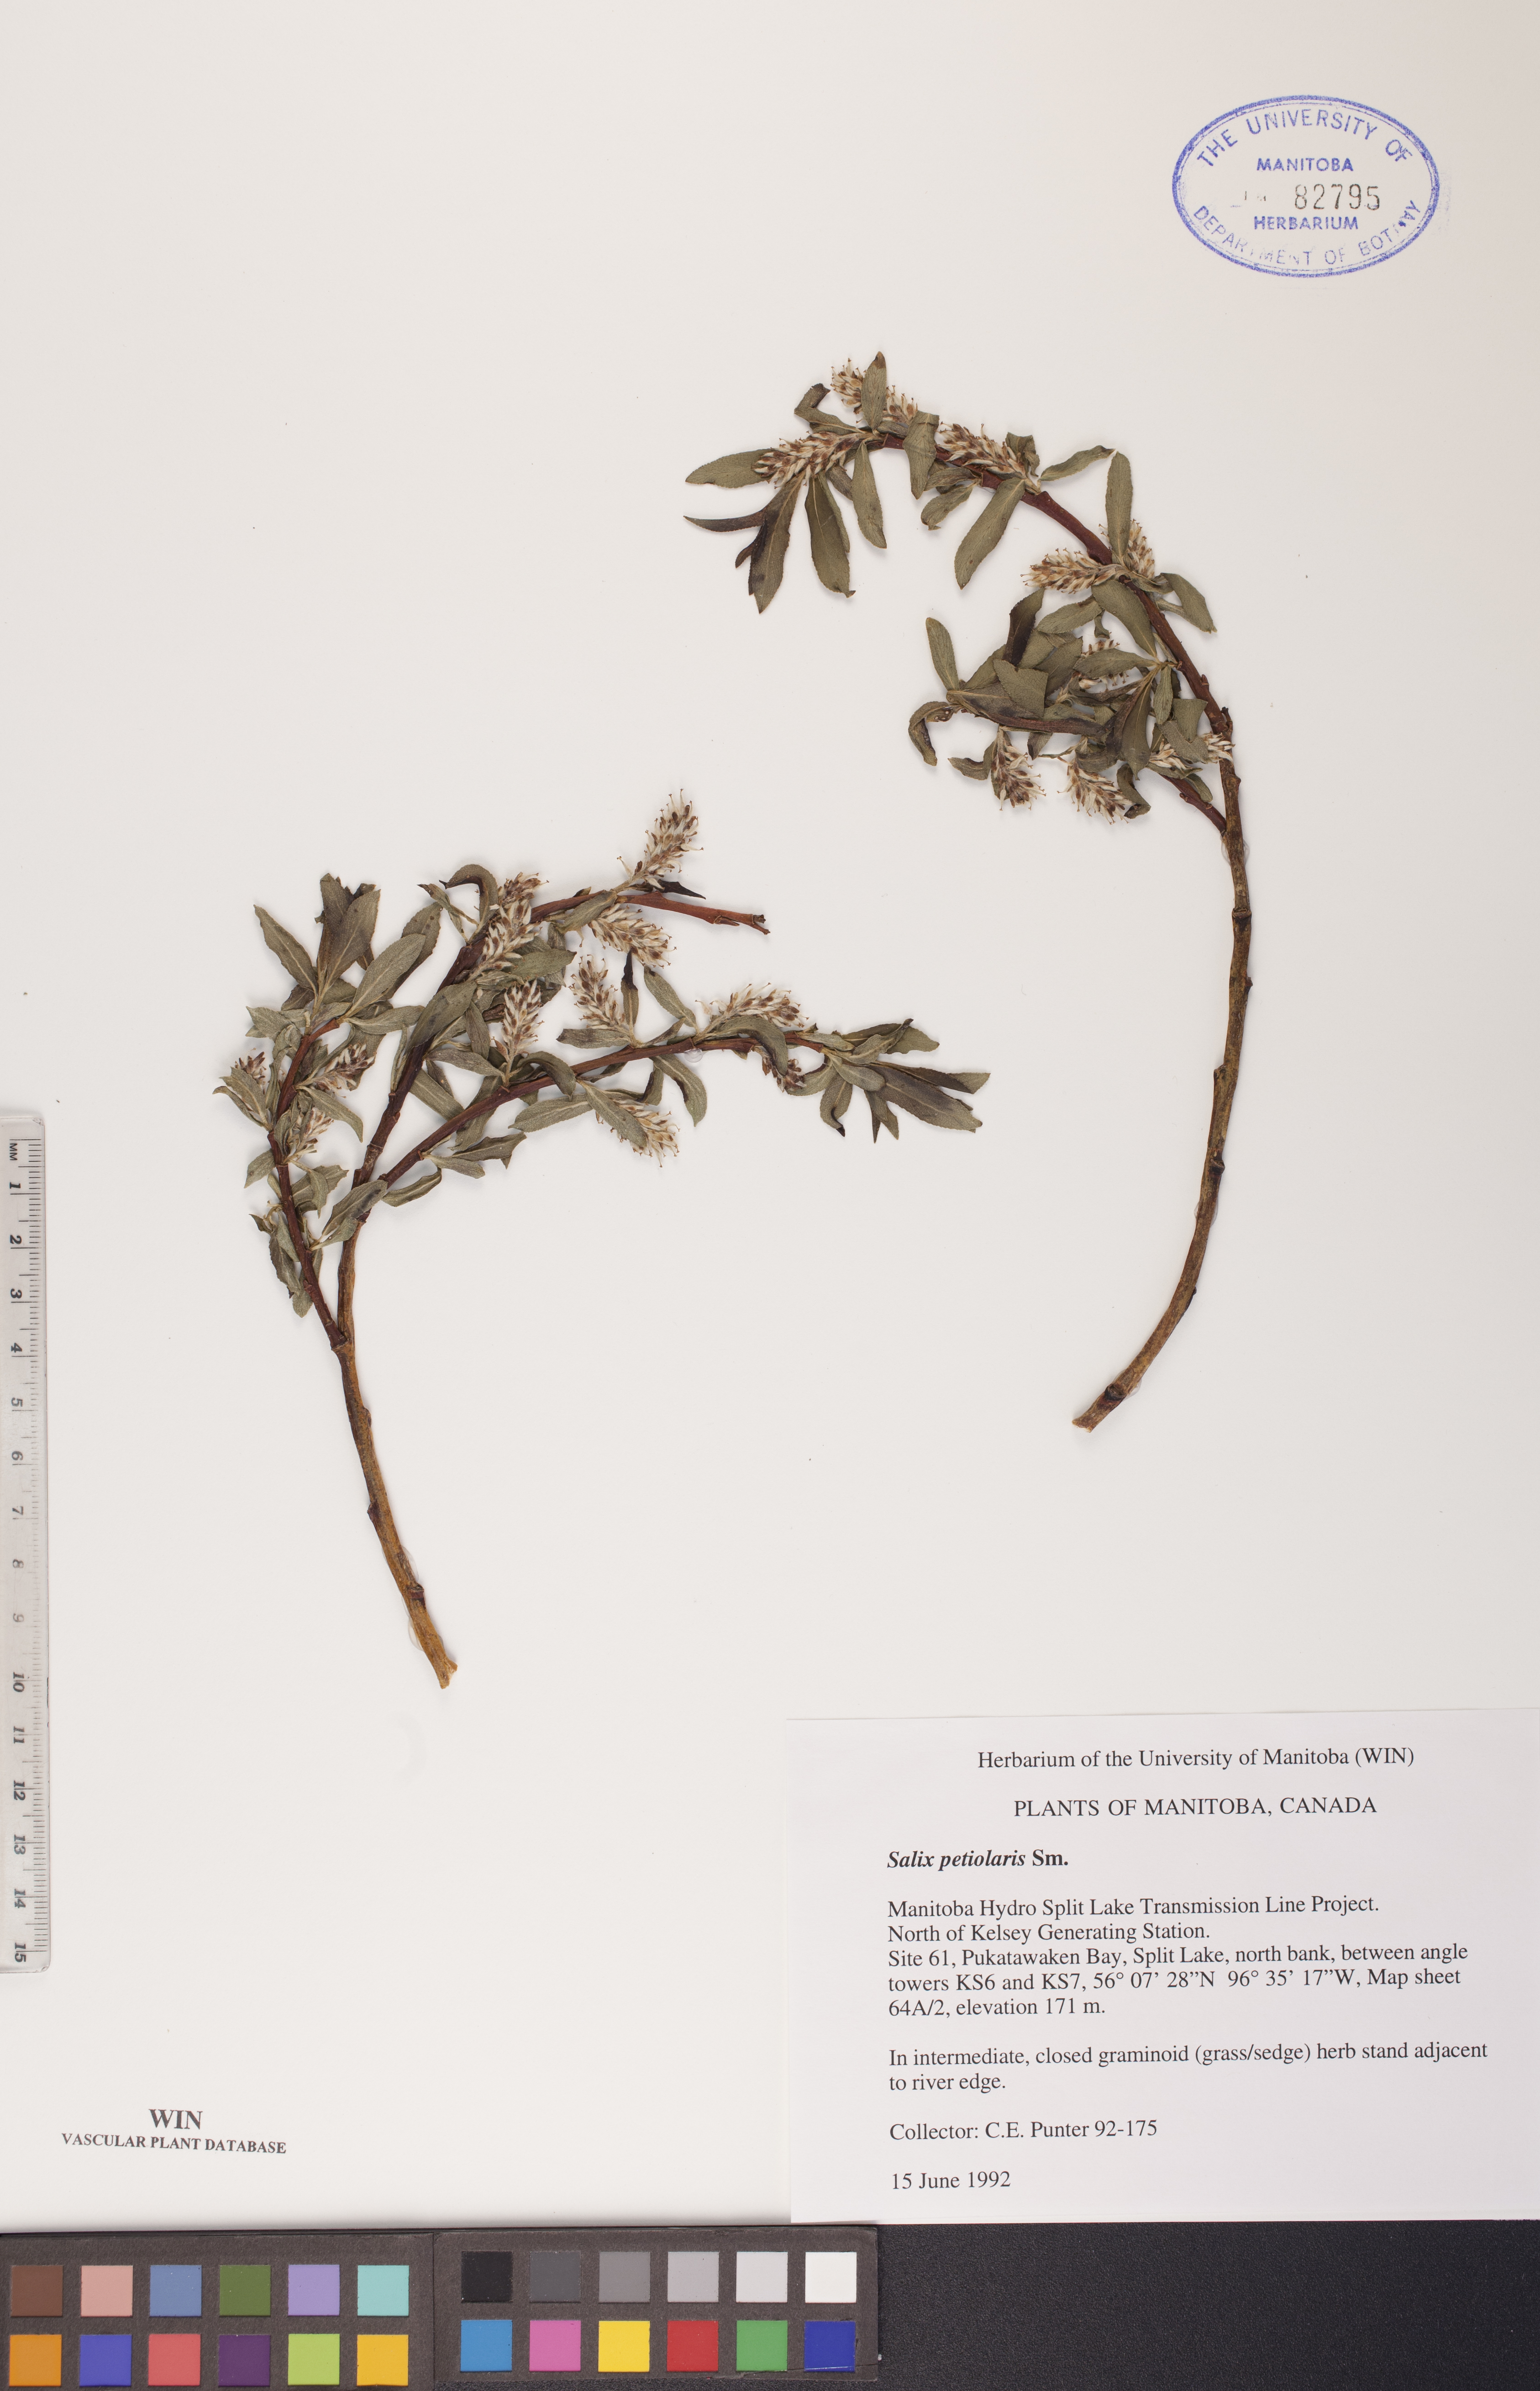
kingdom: Plantae
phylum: Tracheophyta
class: Magnoliopsida
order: Malpighiales
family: Salicaceae
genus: Salix
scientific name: Salix petiolaris
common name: Slender willow
